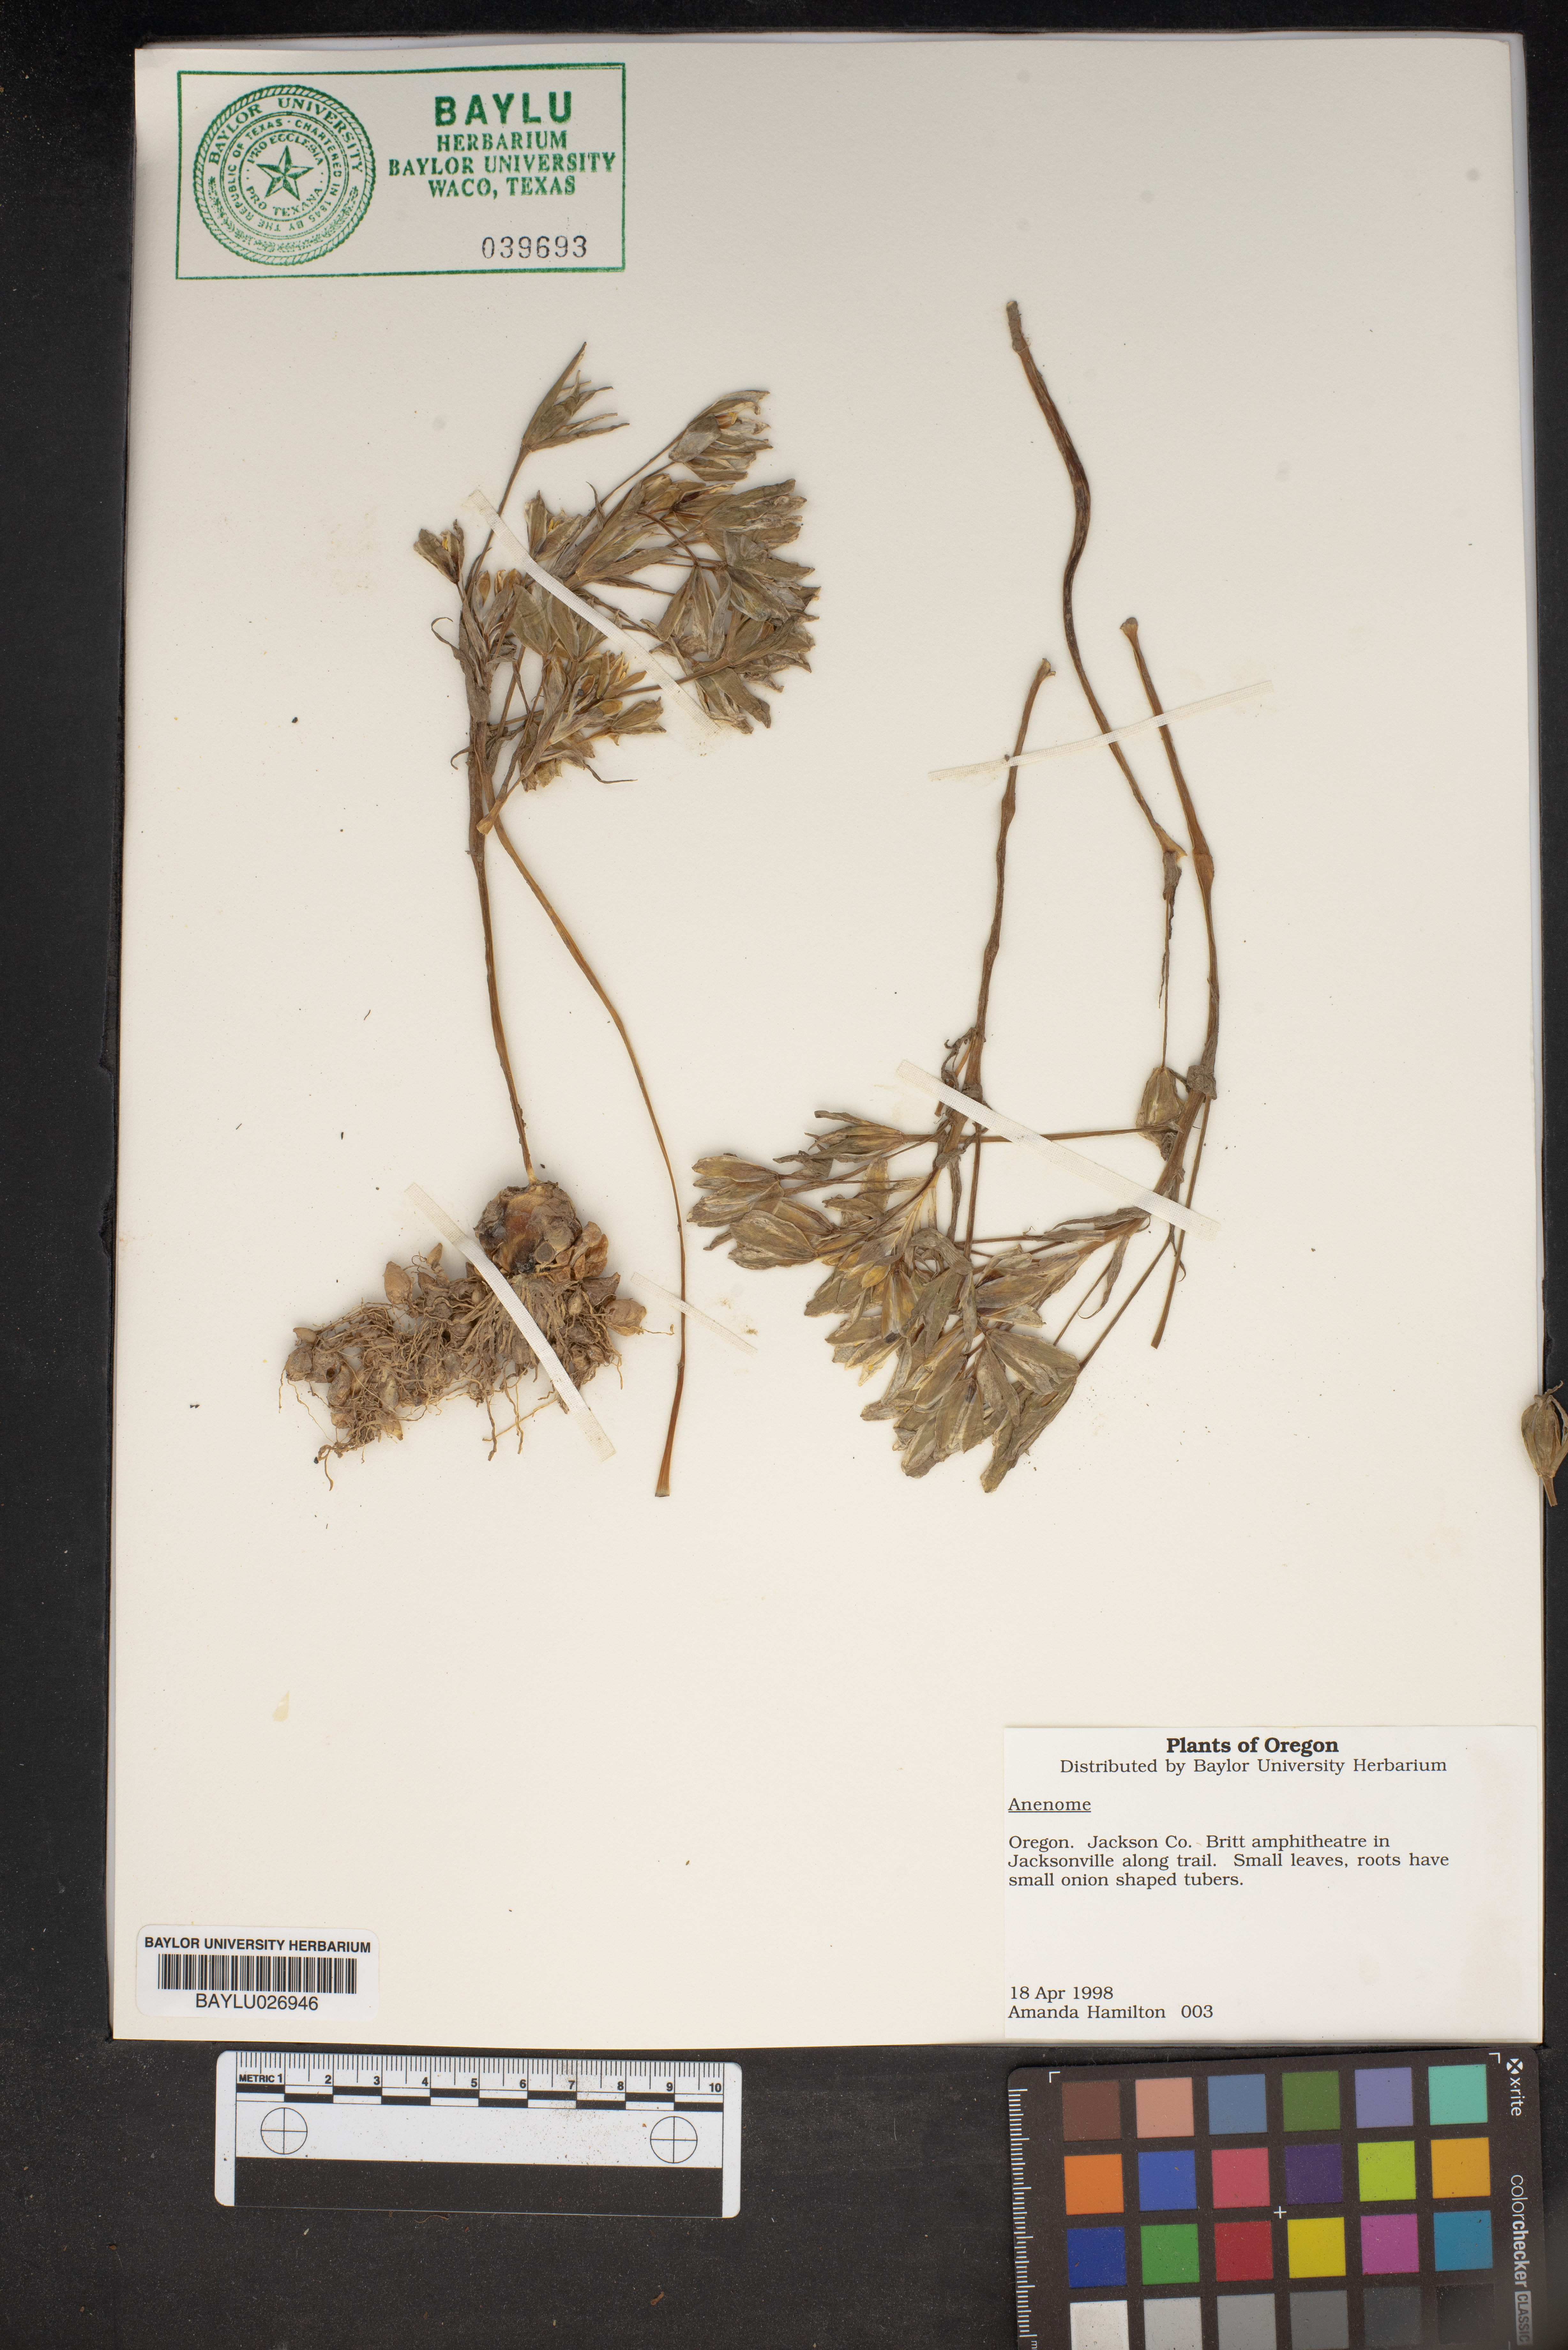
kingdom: Plantae
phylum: Tracheophyta
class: Magnoliopsida
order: Ranunculales
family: Ranunculaceae
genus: Anemone
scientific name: Anemone
